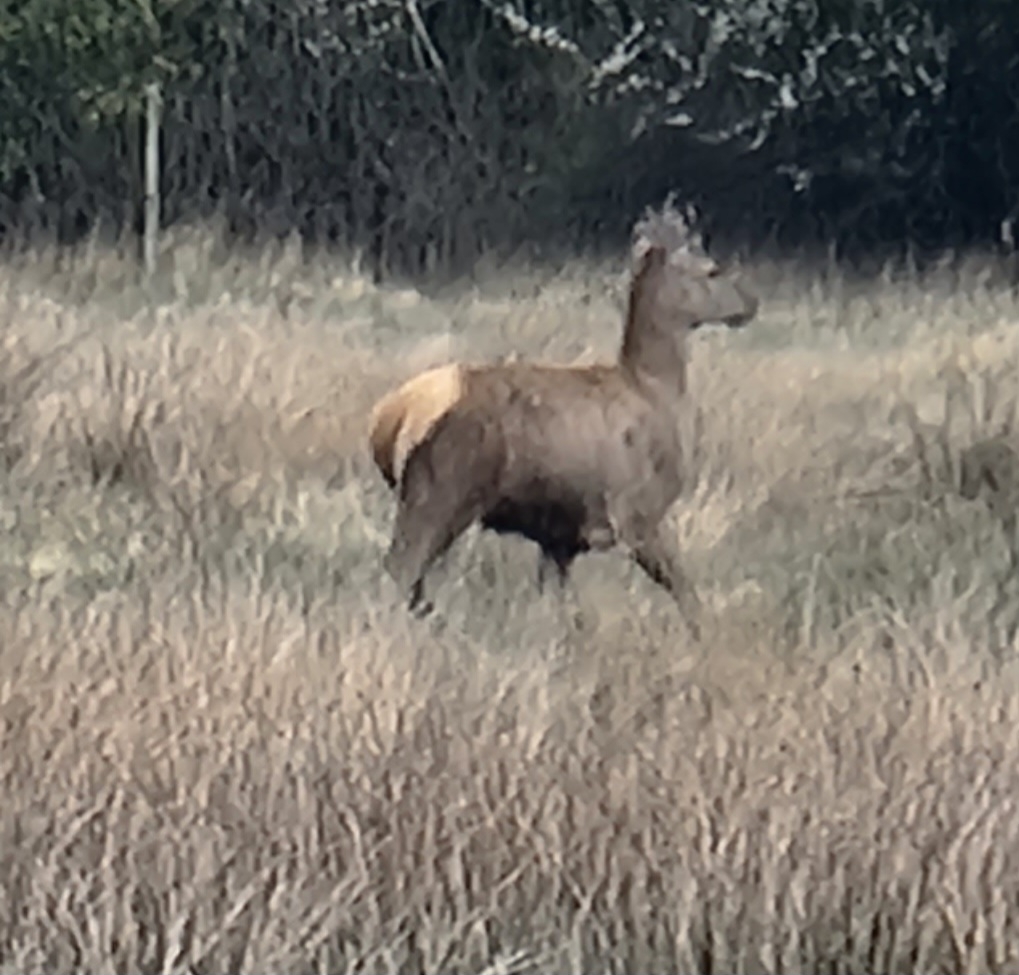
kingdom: Animalia
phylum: Chordata
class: Mammalia
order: Artiodactyla
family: Cervidae
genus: Cervus
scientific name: Cervus elaphus
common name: Krondyr
